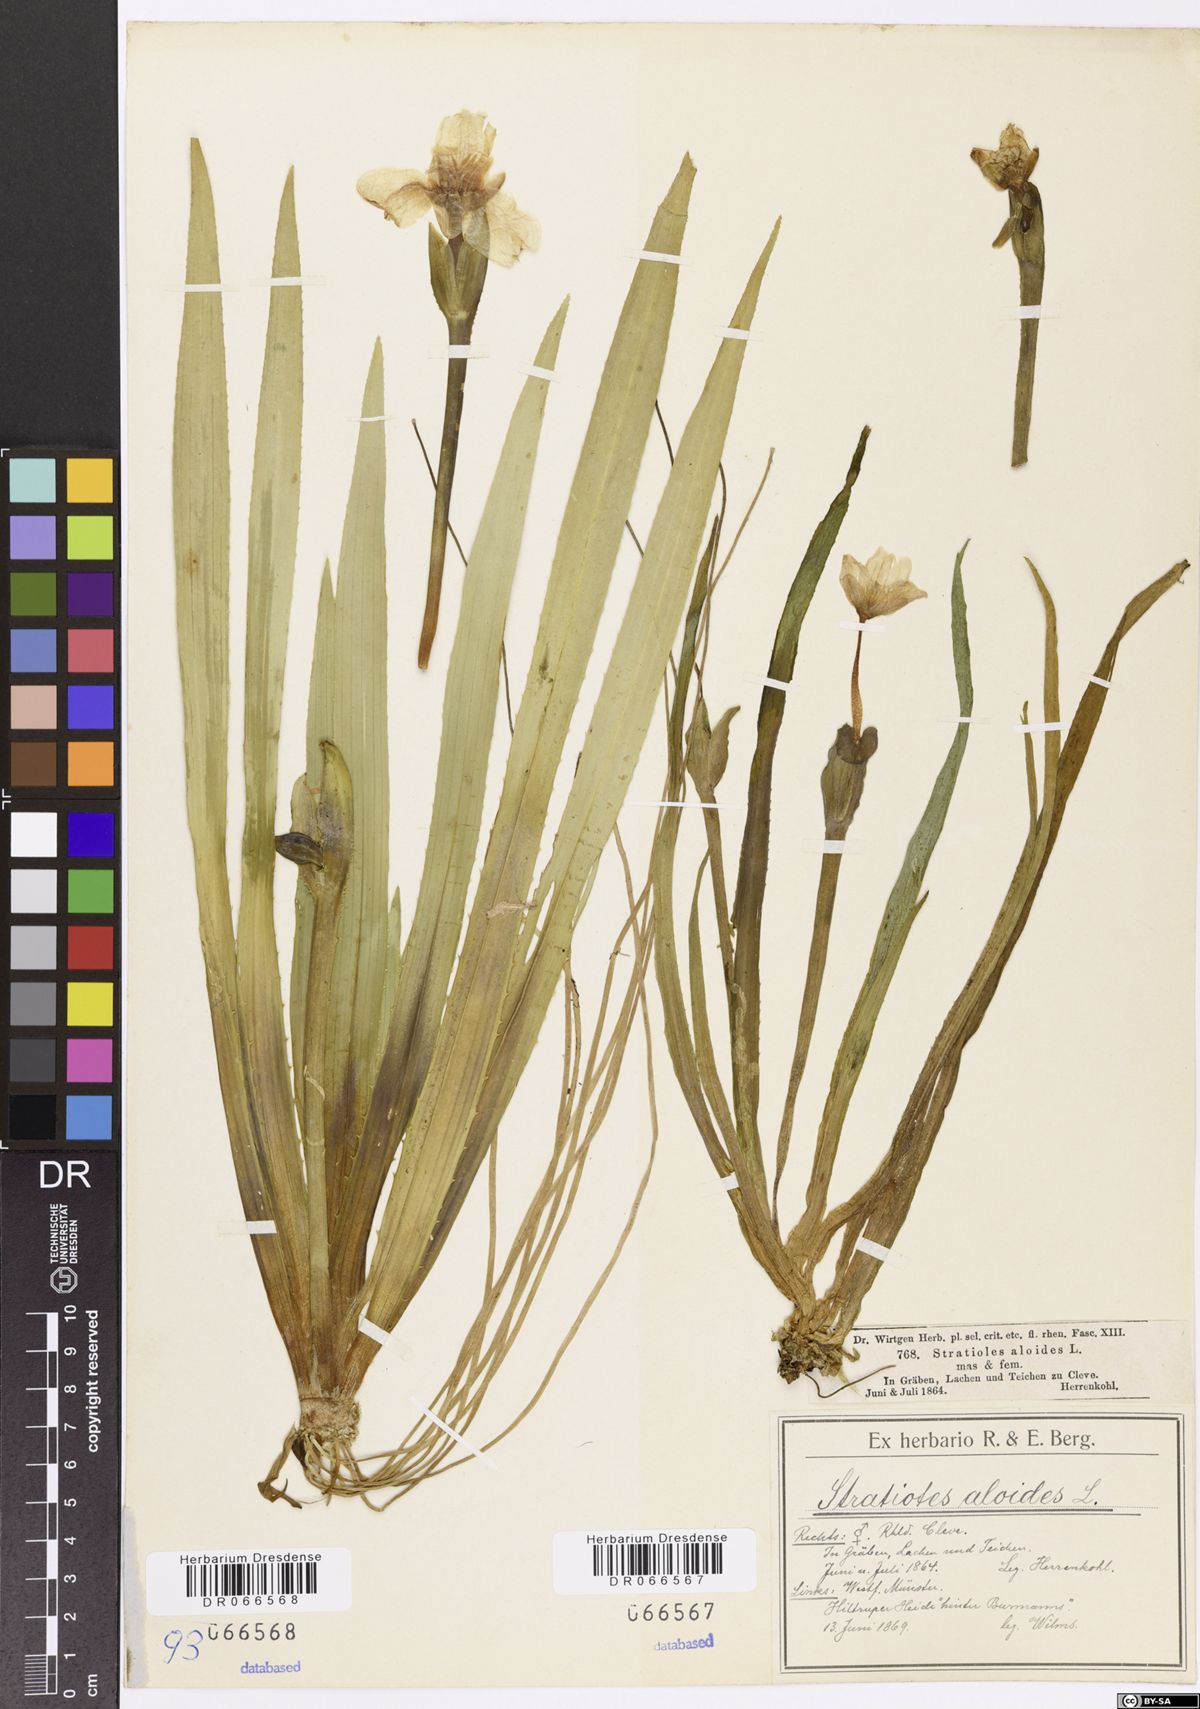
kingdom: Plantae
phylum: Tracheophyta
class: Liliopsida
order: Alismatales
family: Hydrocharitaceae
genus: Stratiotes
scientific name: Stratiotes aloides
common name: Water-soldier
